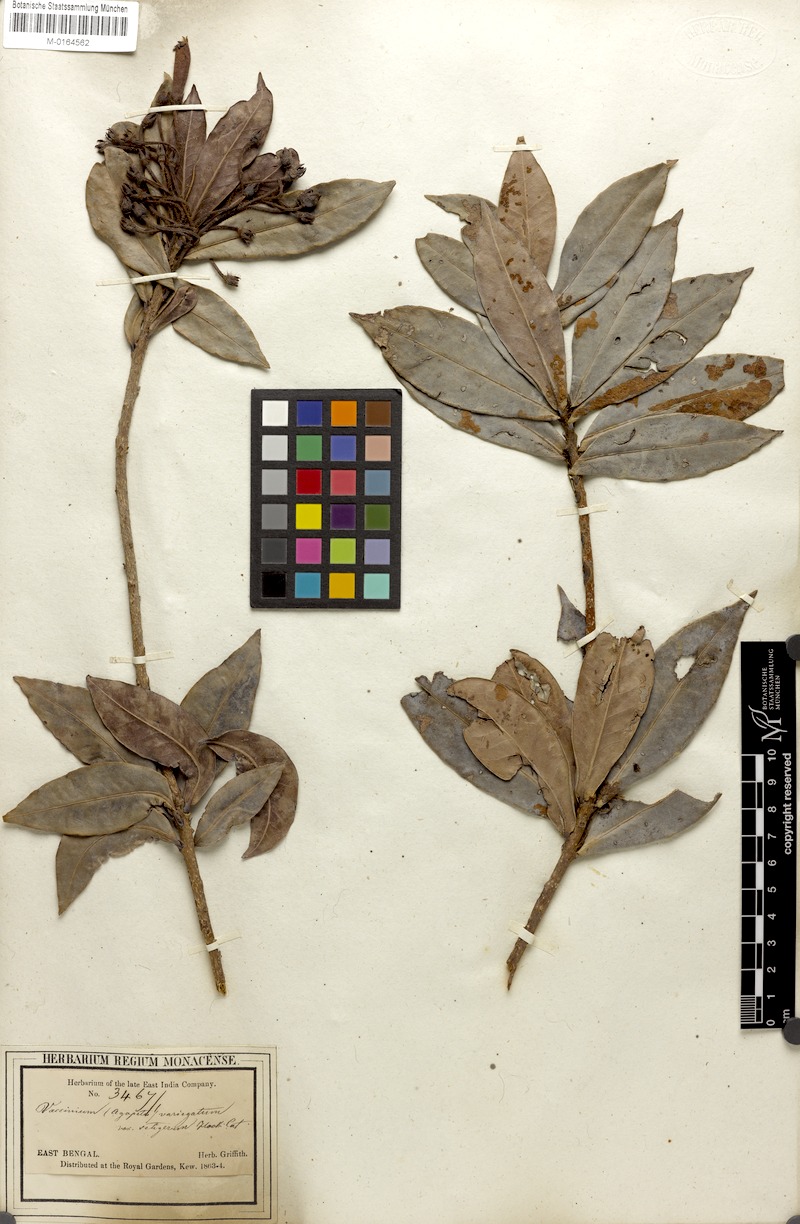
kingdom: Plantae
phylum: Tracheophyta
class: Magnoliopsida
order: Ericales
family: Ericaceae
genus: Agapetes
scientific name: Agapetes variegata
